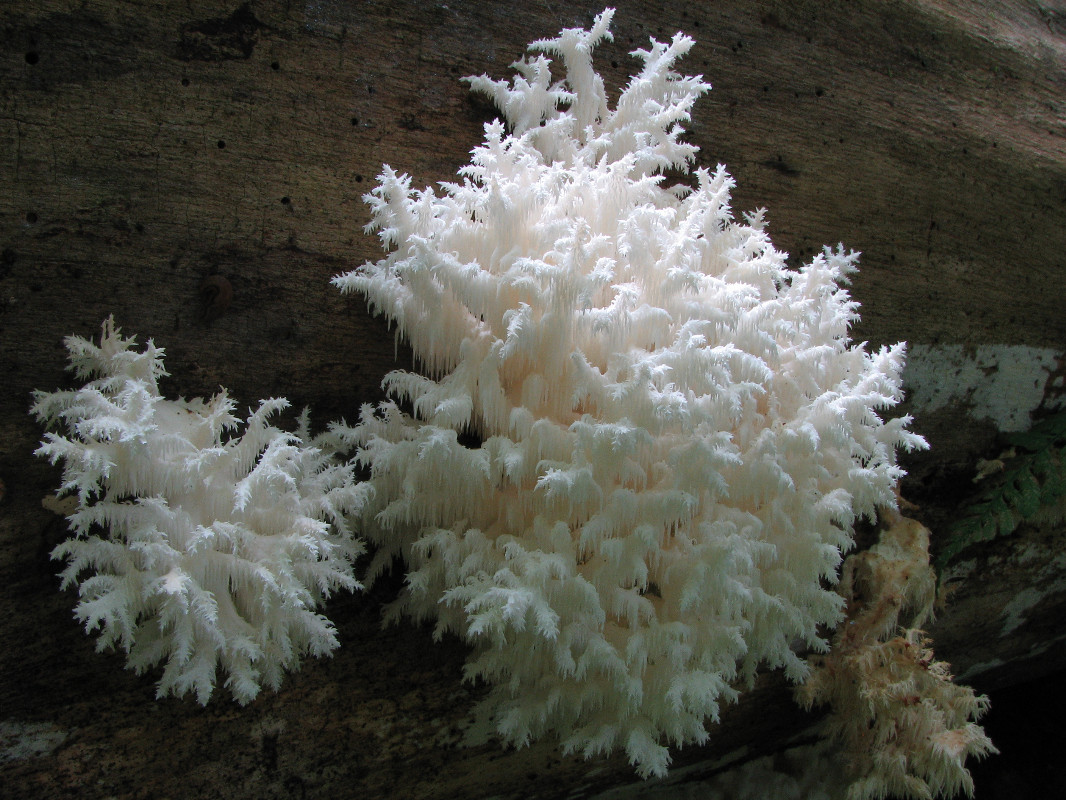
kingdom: Fungi
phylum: Basidiomycota
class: Agaricomycetes
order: Russulales
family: Hericiaceae
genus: Hericium
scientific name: Hericium coralloides
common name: koralpigsvamp
